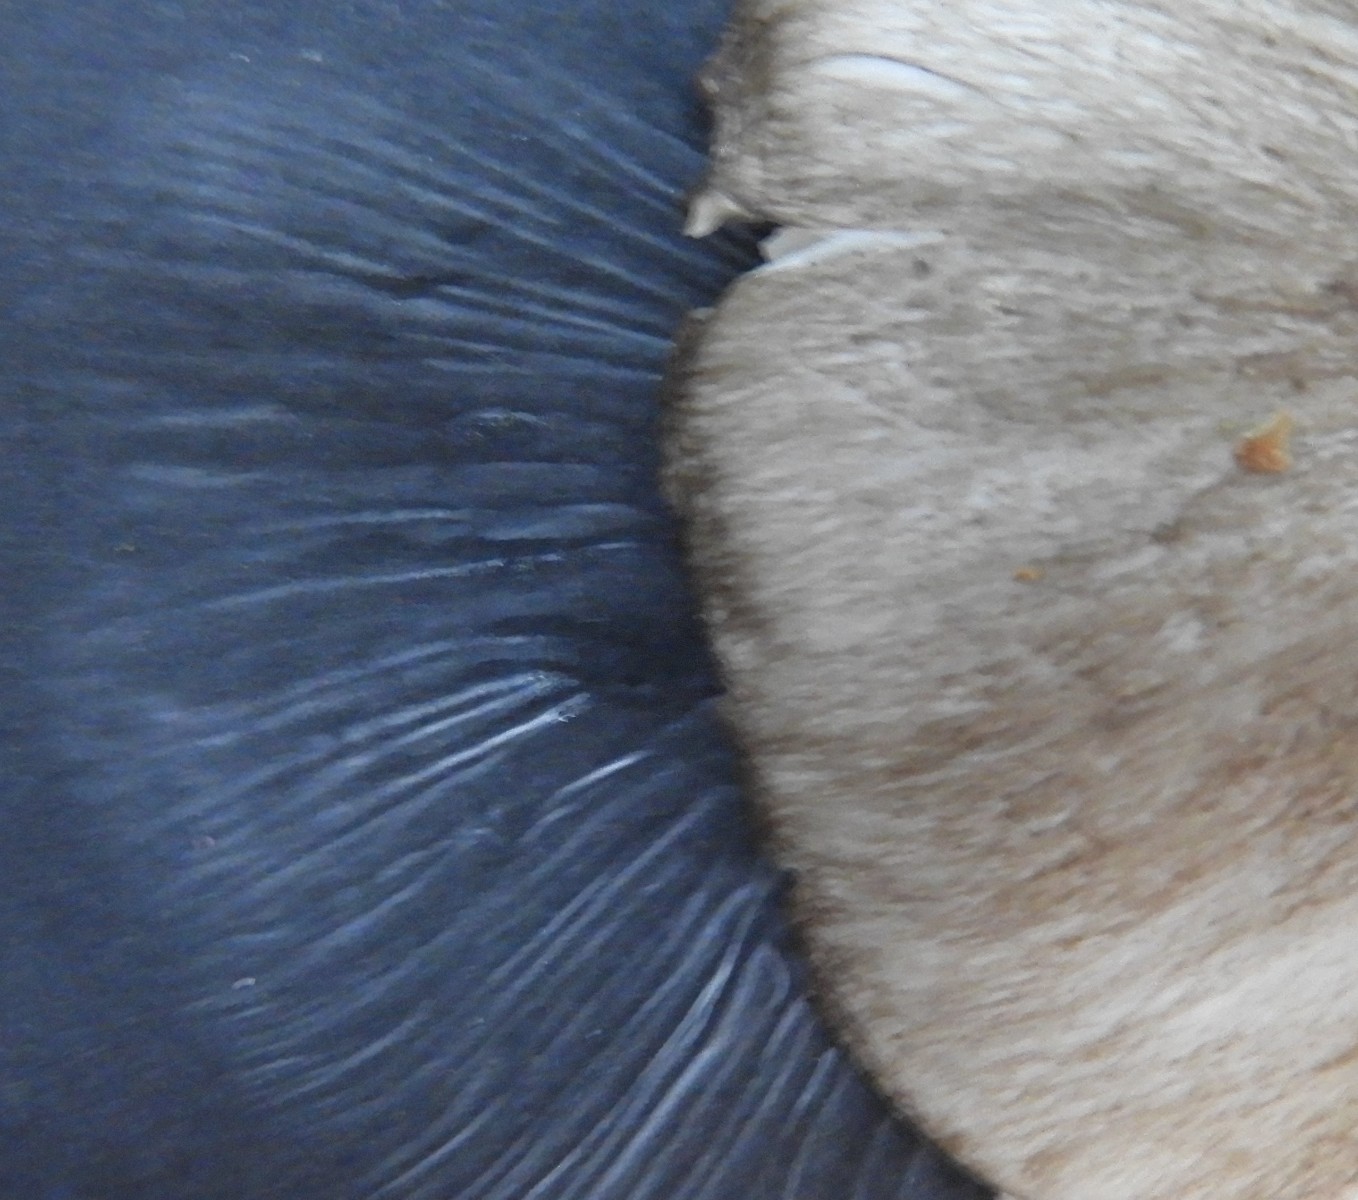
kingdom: Fungi
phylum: Basidiomycota
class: Agaricomycetes
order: Agaricales
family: Tricholomataceae
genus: Megacollybia
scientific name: Megacollybia platyphylla
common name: bredbladet væbnerhat
